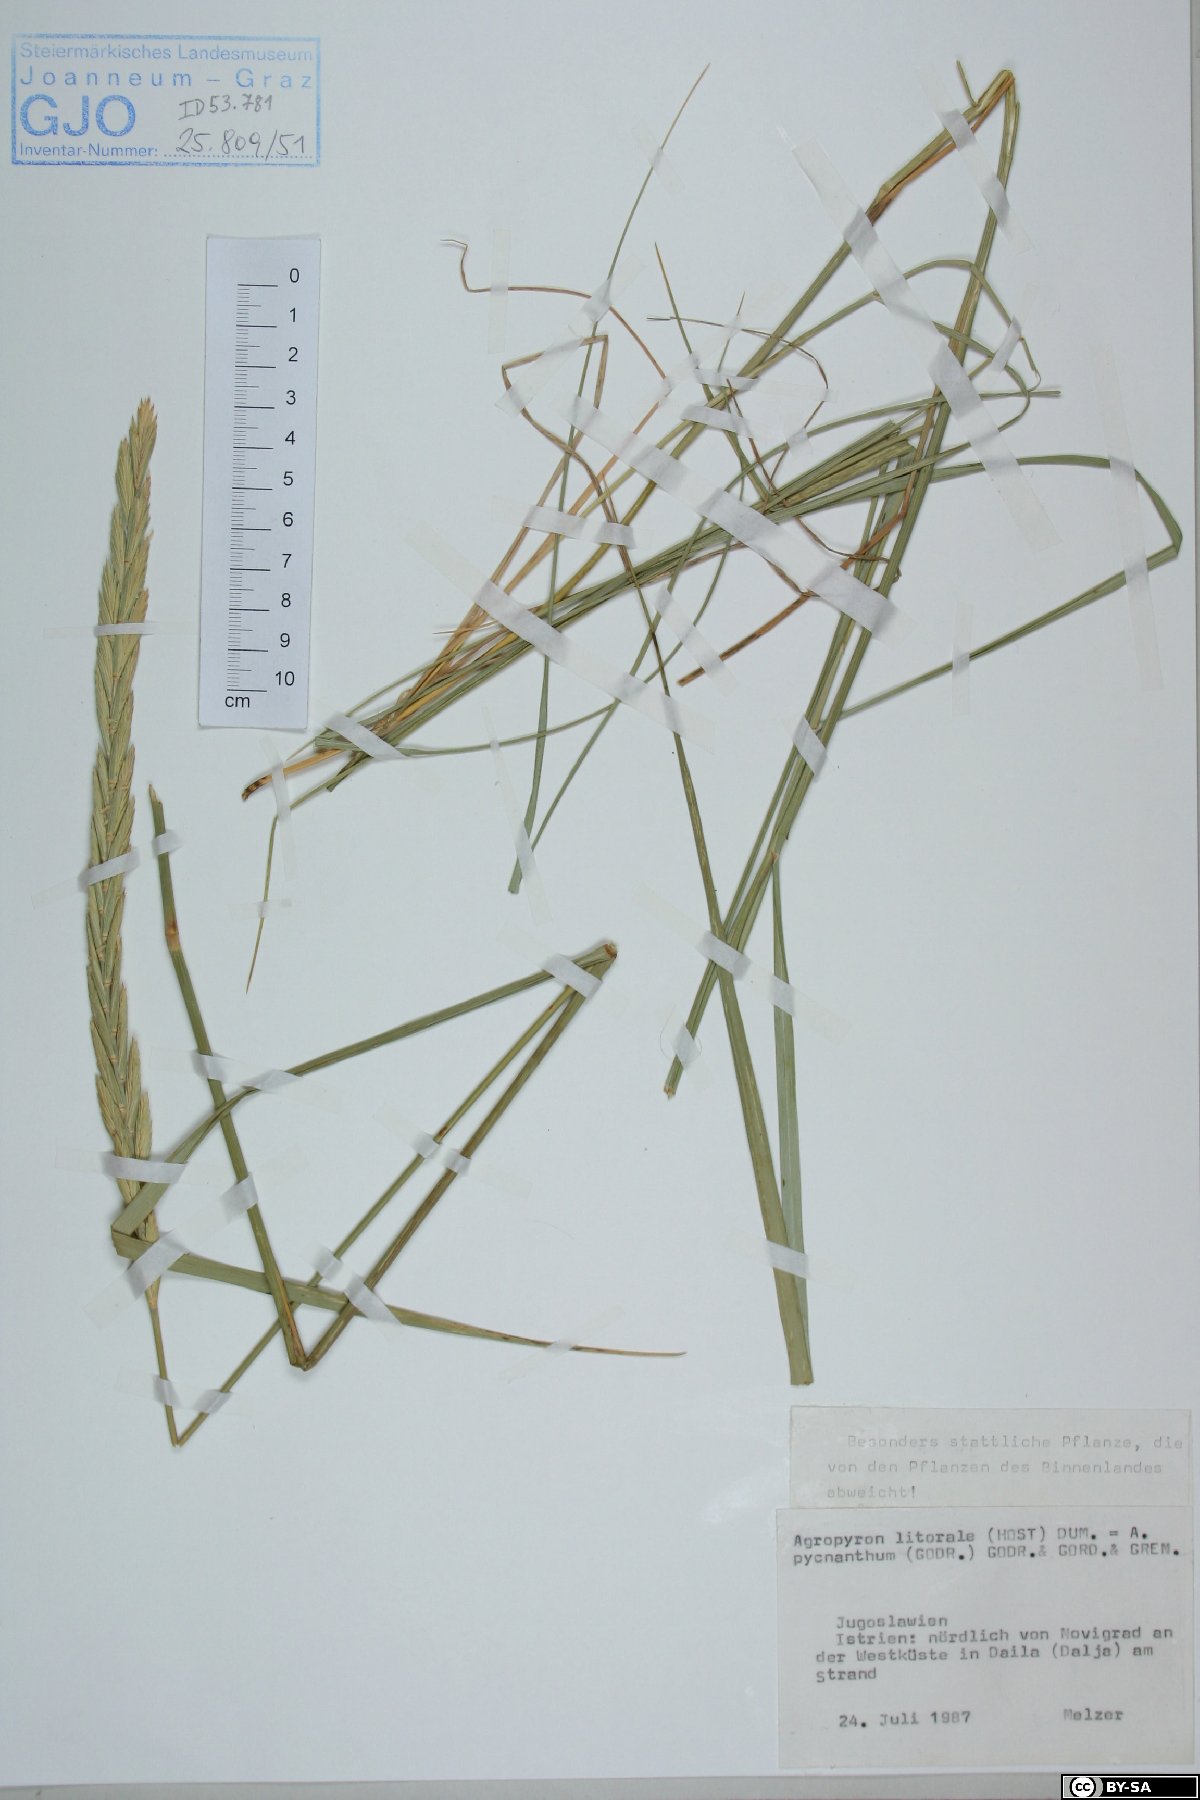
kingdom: Plantae
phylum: Tracheophyta
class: Liliopsida
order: Poales
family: Poaceae
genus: Elymus
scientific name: Elymus athericus
